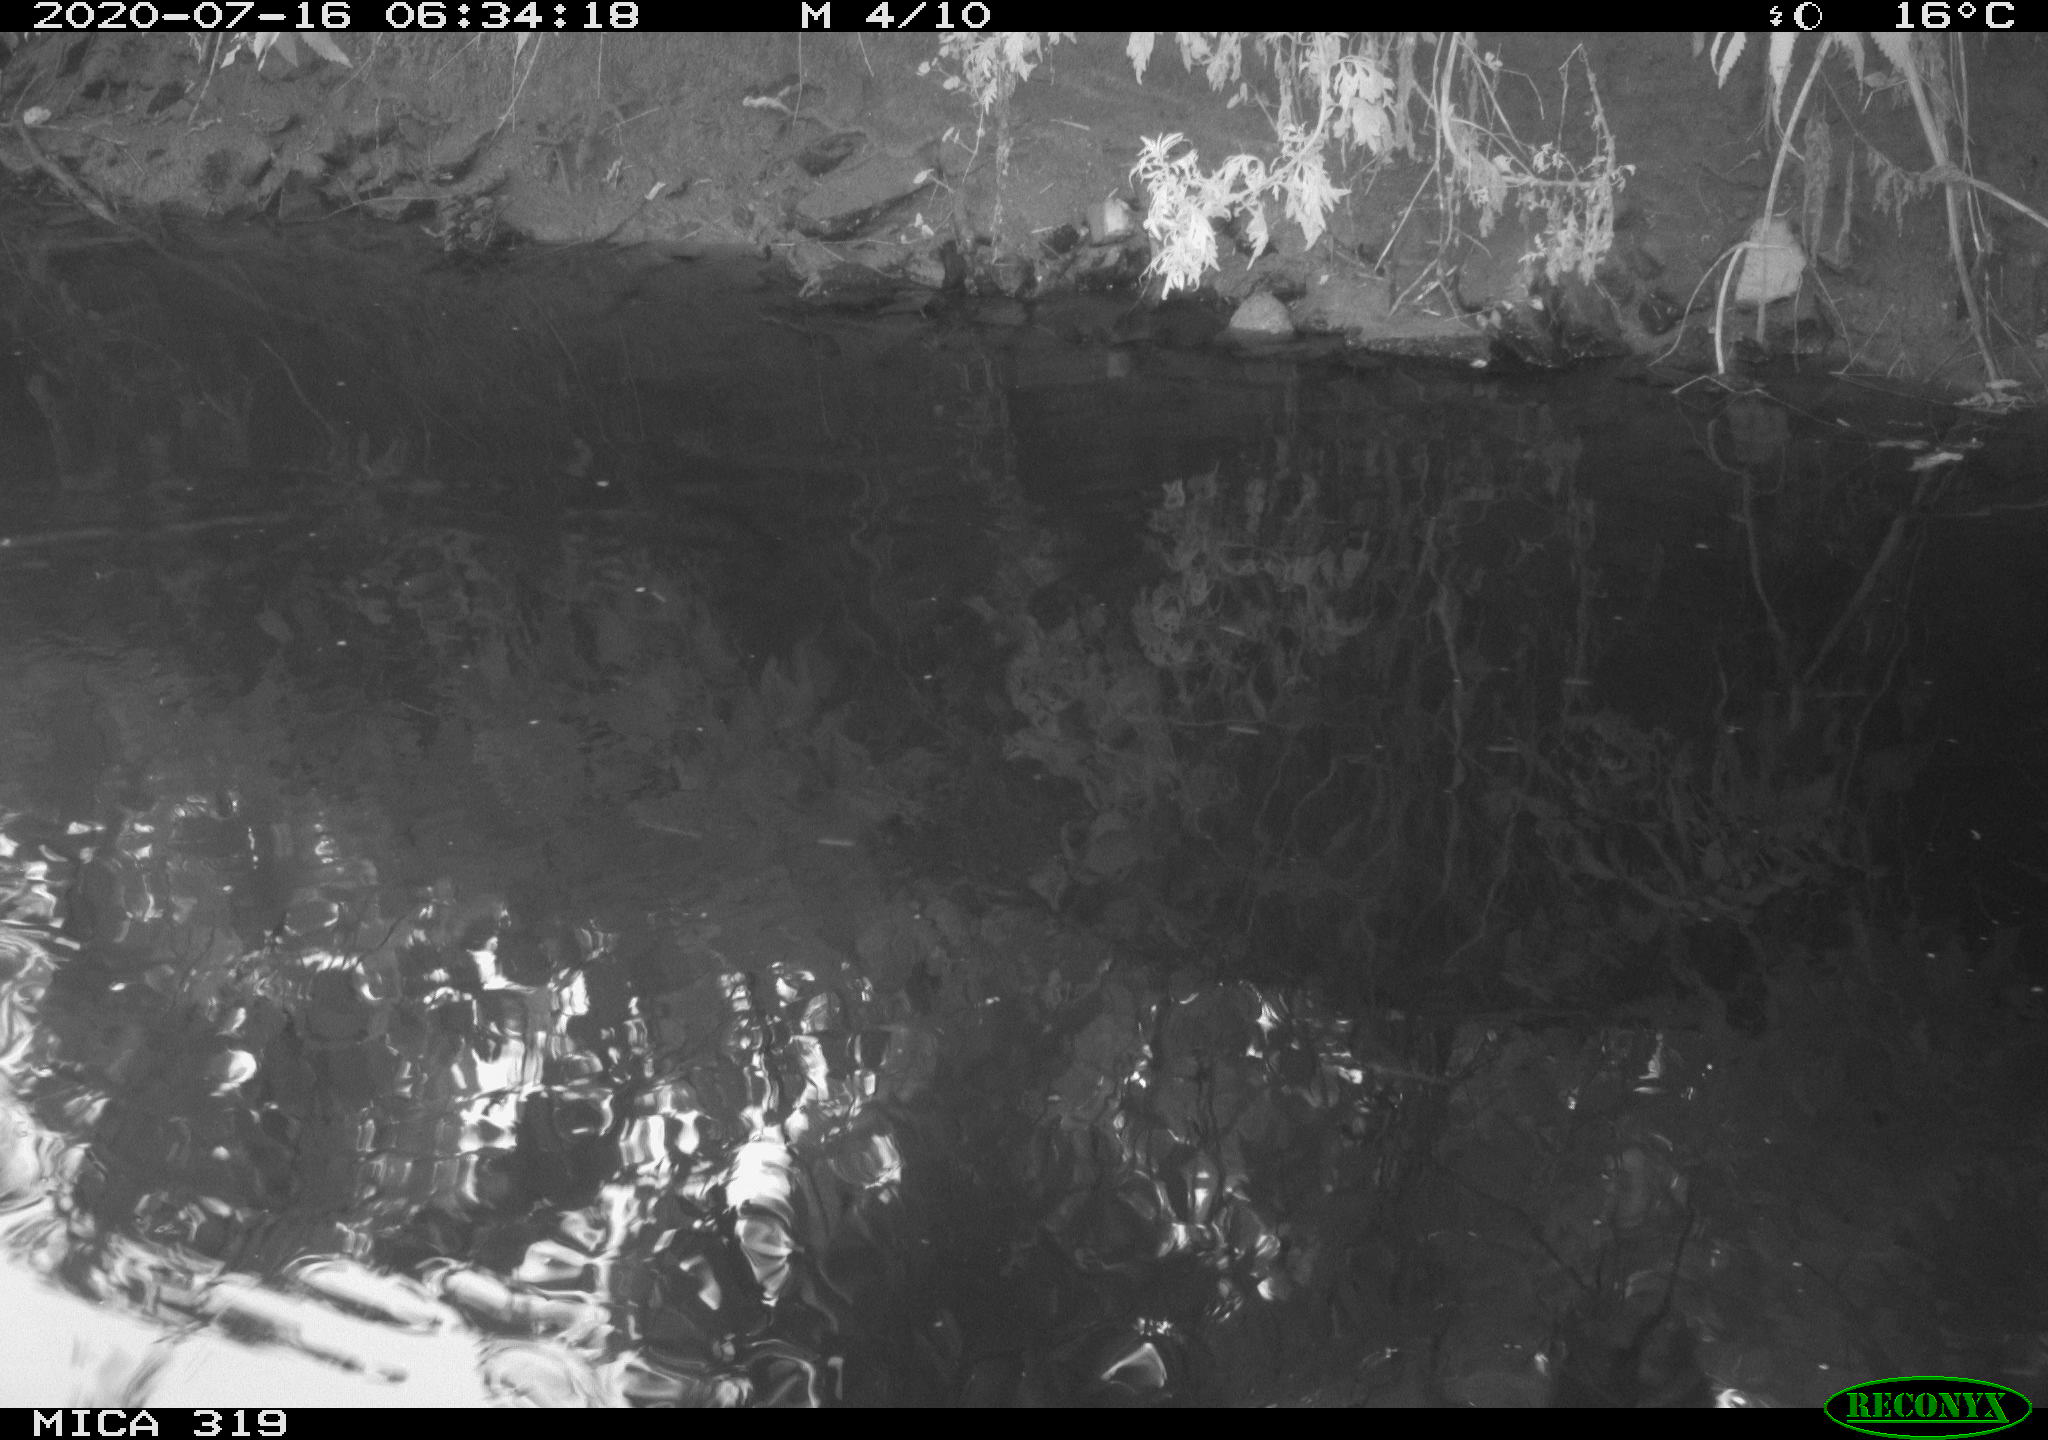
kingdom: Animalia
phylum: Chordata
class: Aves
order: Anseriformes
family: Anatidae
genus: Anas
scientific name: Anas platyrhynchos
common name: Mallard
